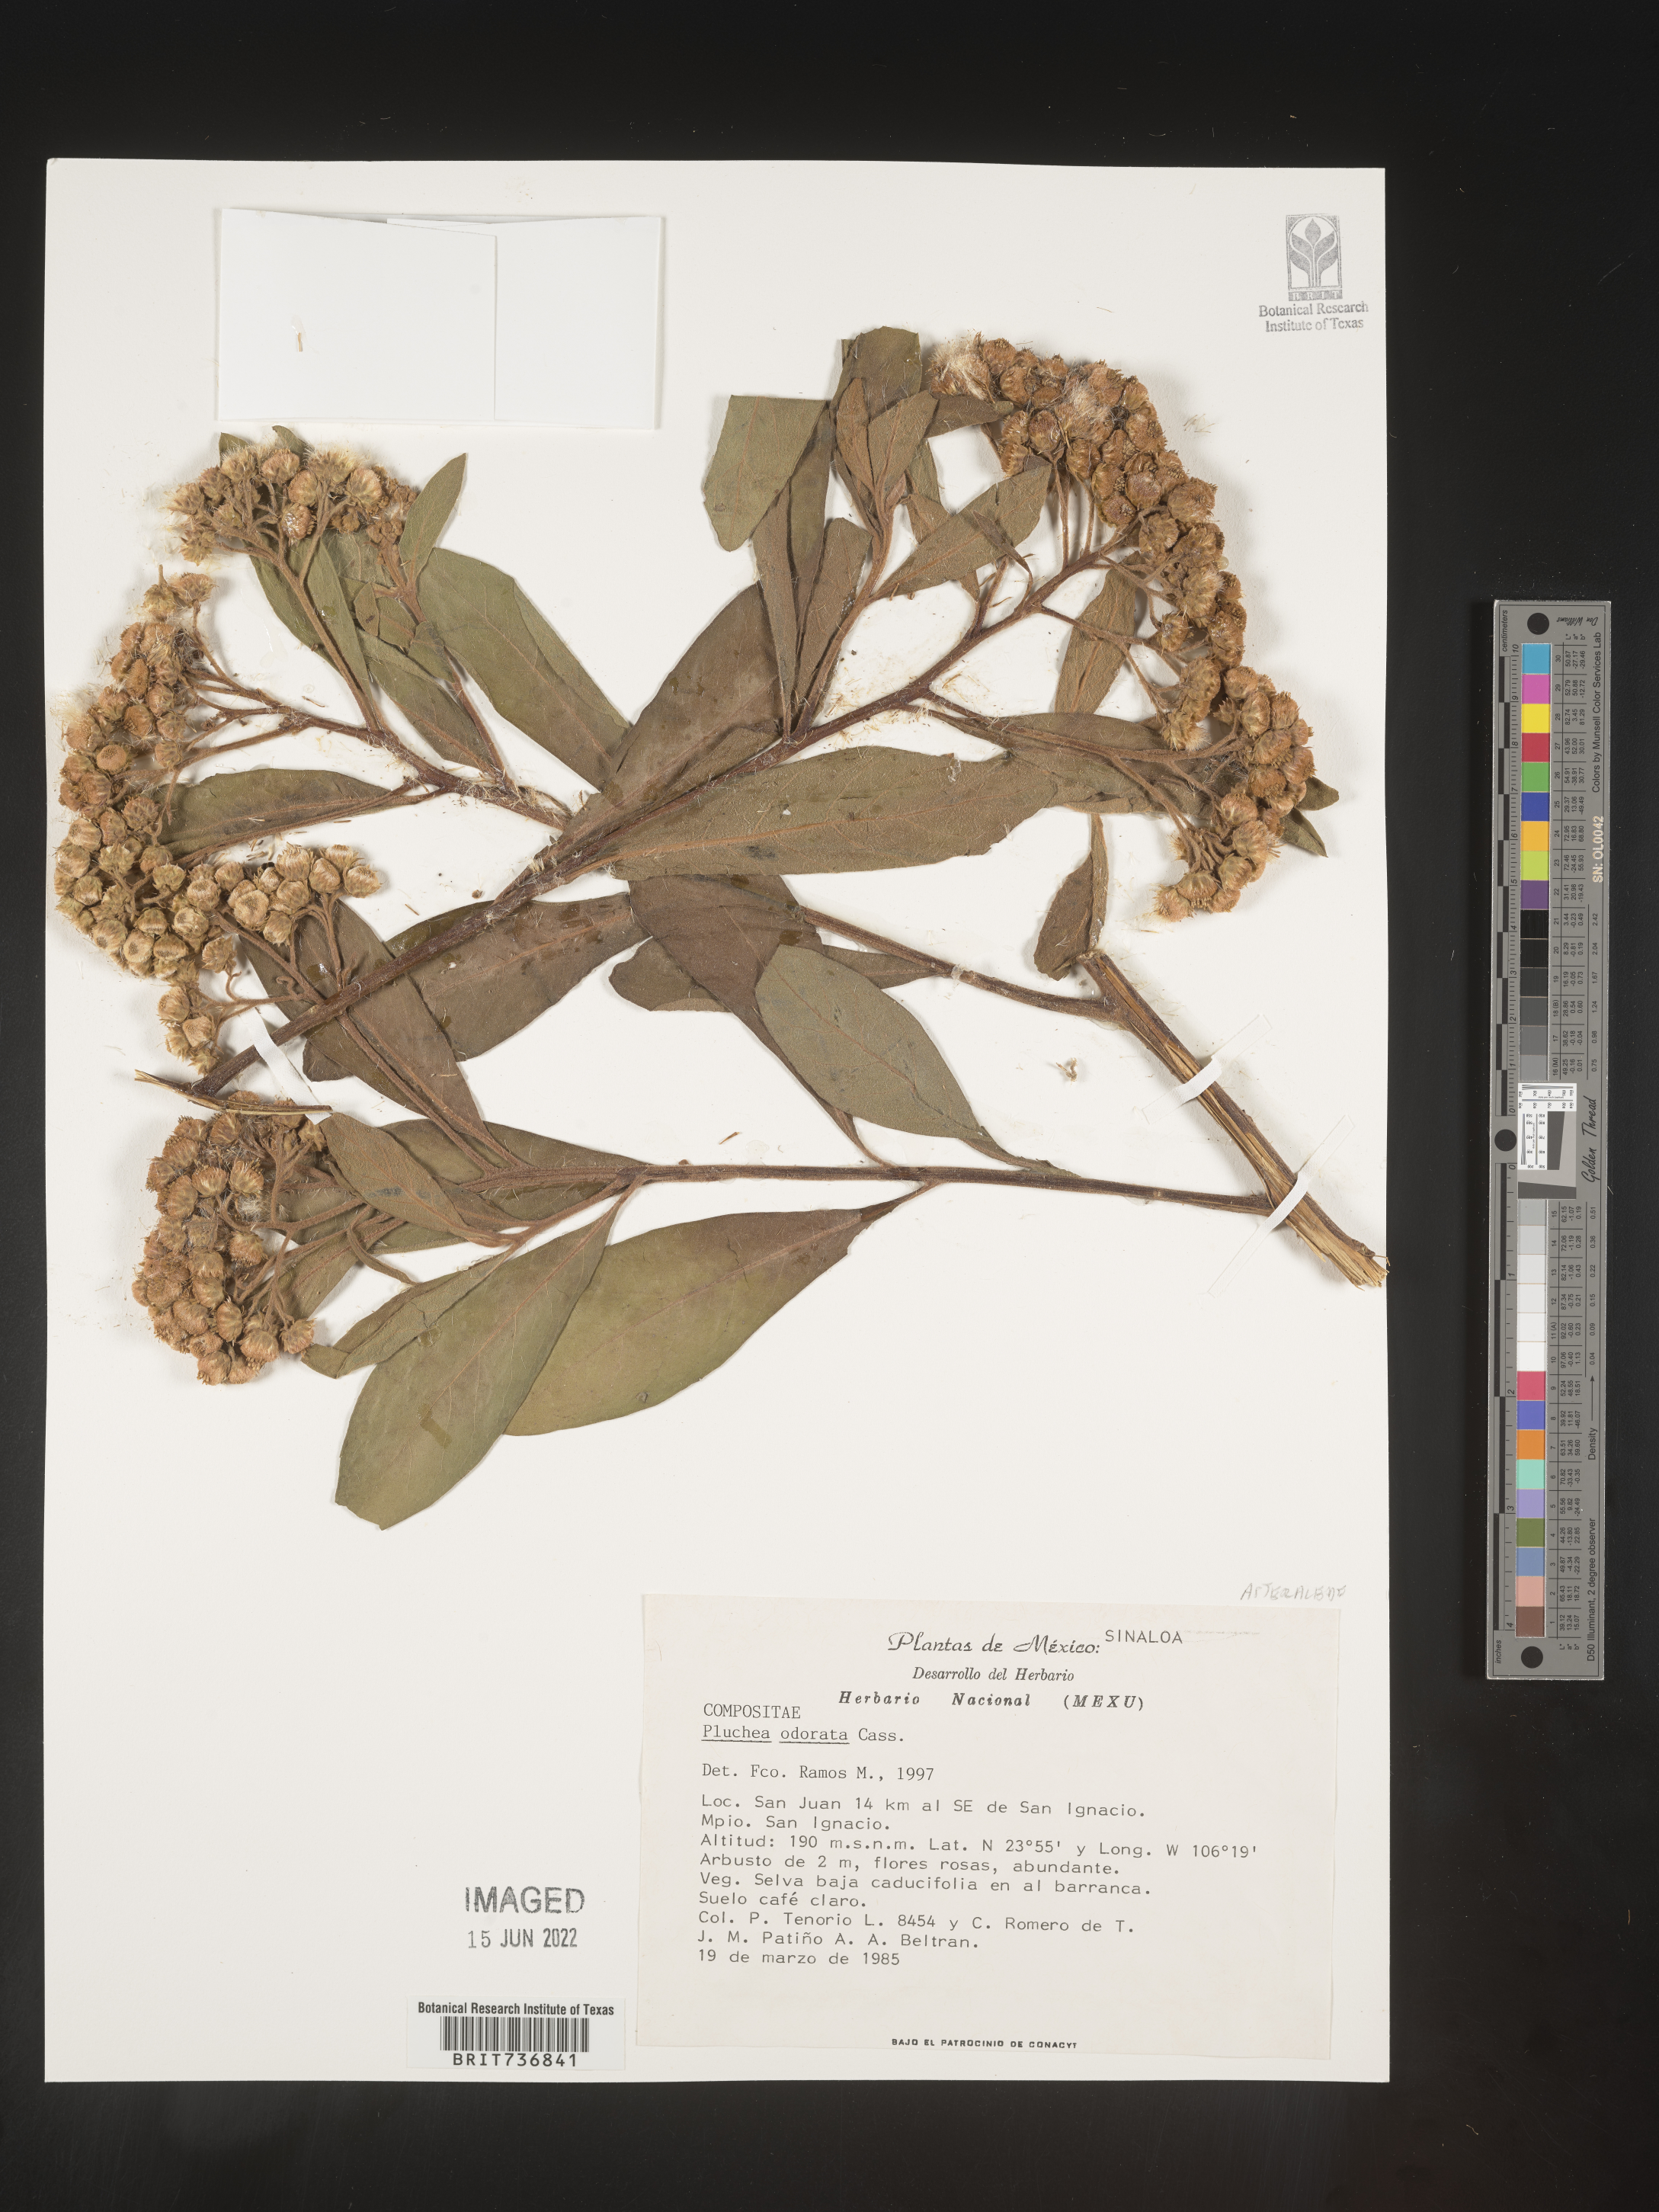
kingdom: Plantae
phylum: Tracheophyta
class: Magnoliopsida
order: Asterales
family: Asteraceae
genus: Pluchea
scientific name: Pluchea
